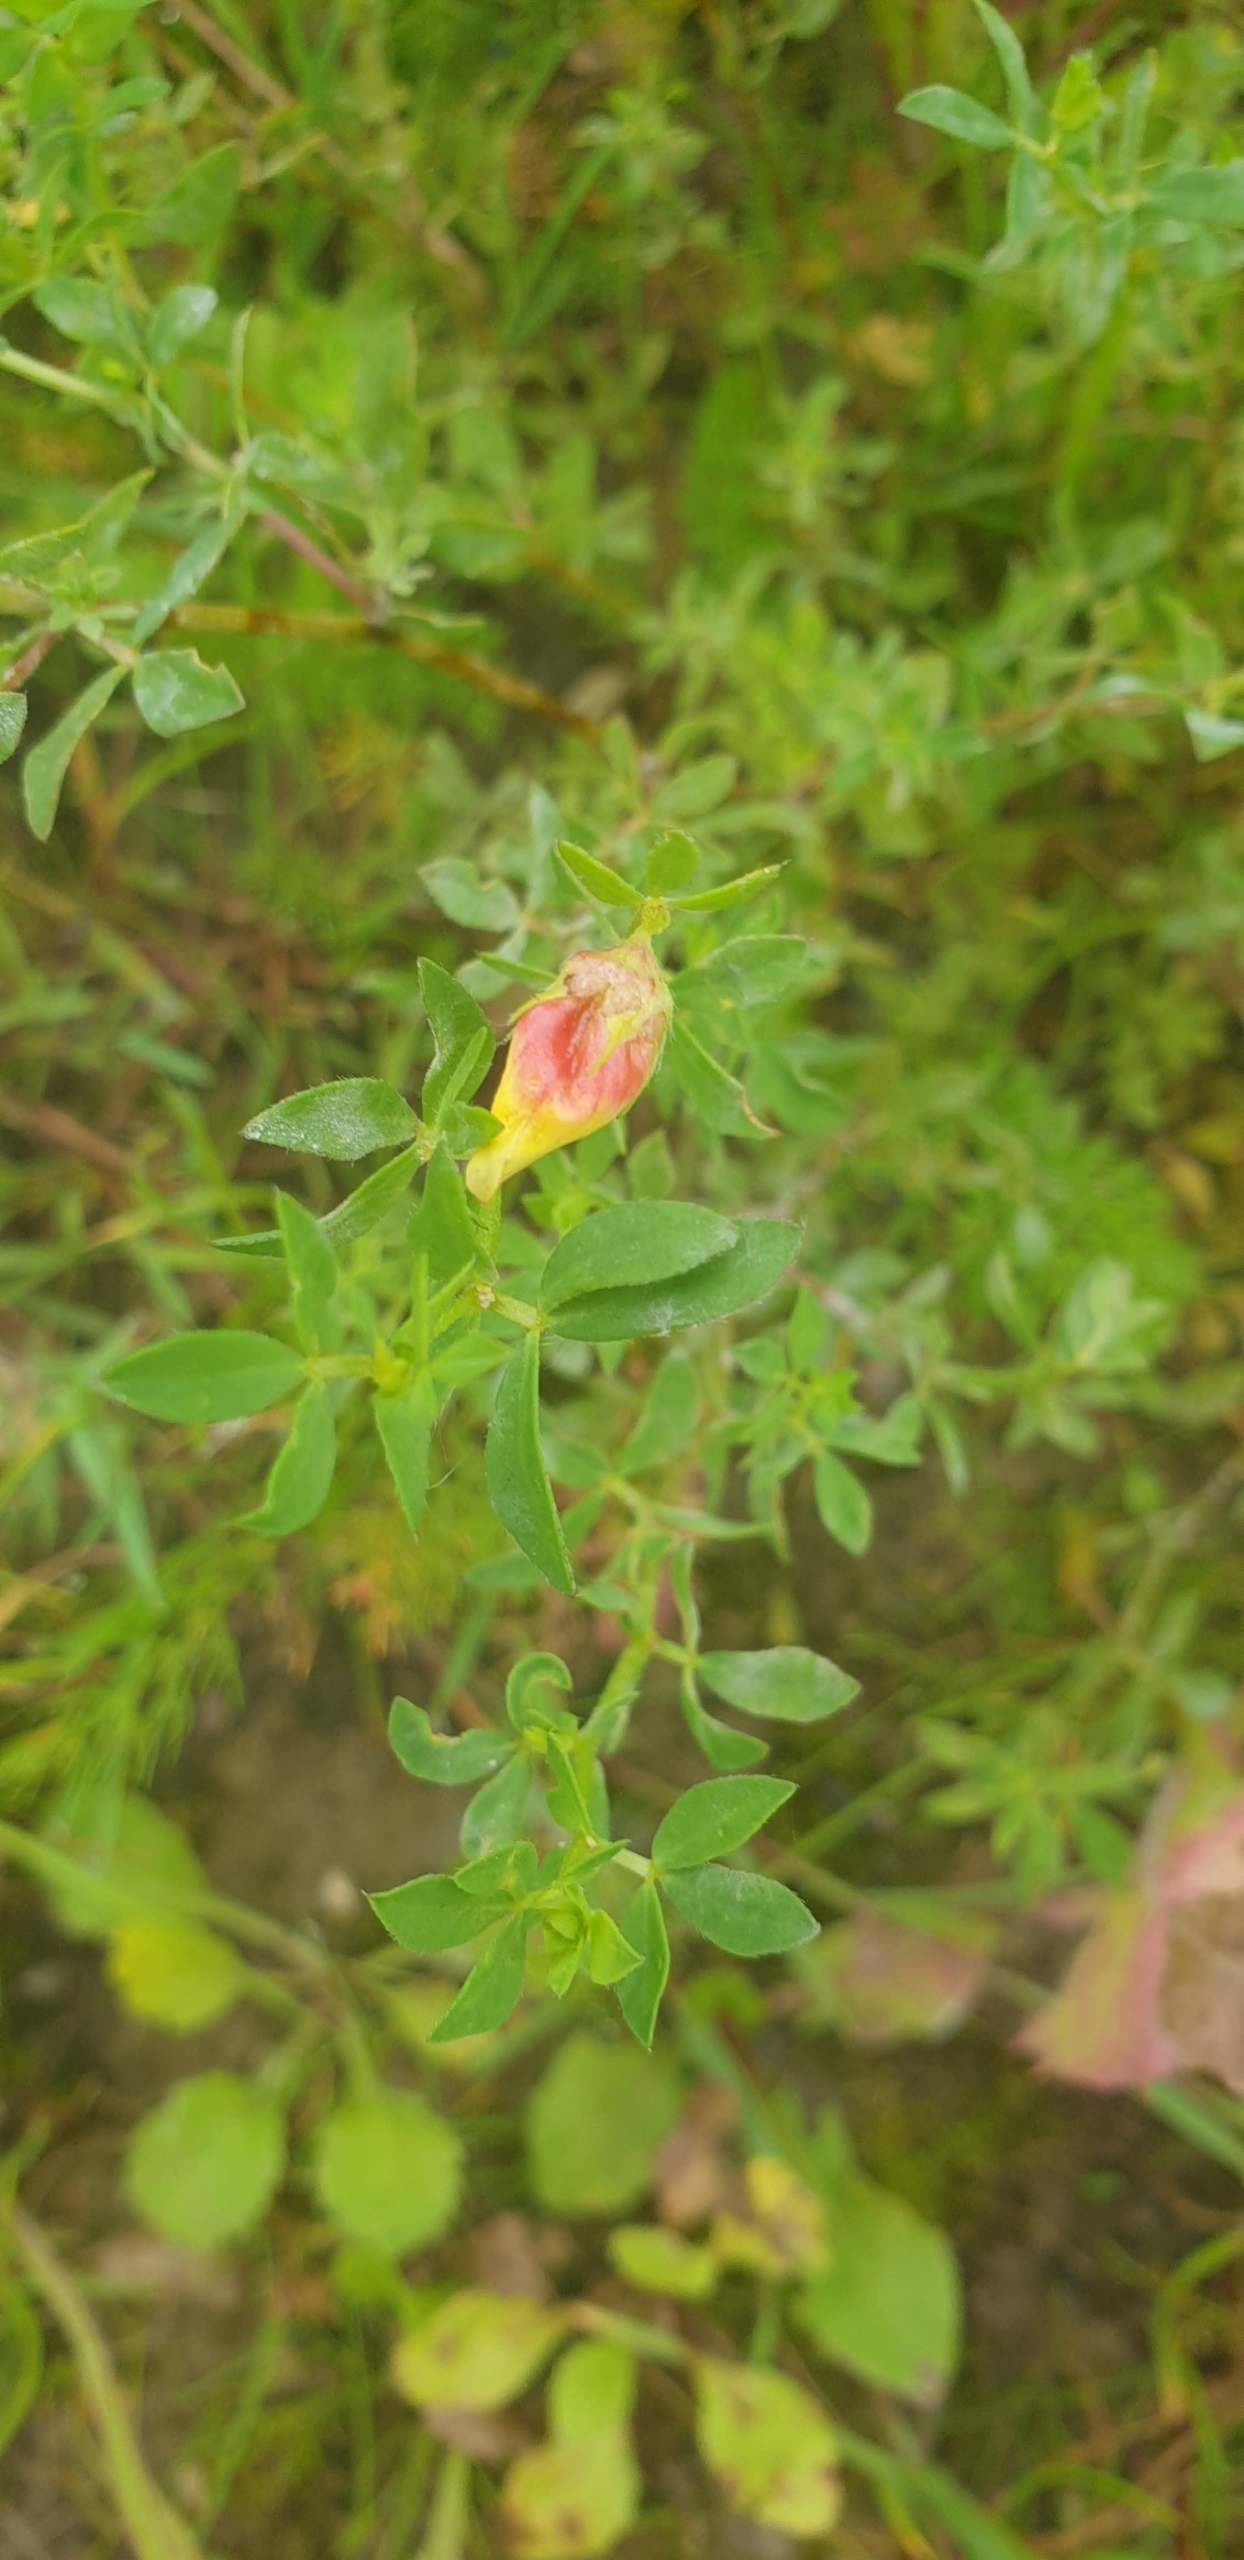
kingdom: Animalia
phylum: Arthropoda
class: Insecta
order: Diptera
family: Cecidomyiidae
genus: Contarinia
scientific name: Contarinia loti
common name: Kællingetandblomstgalmyg
